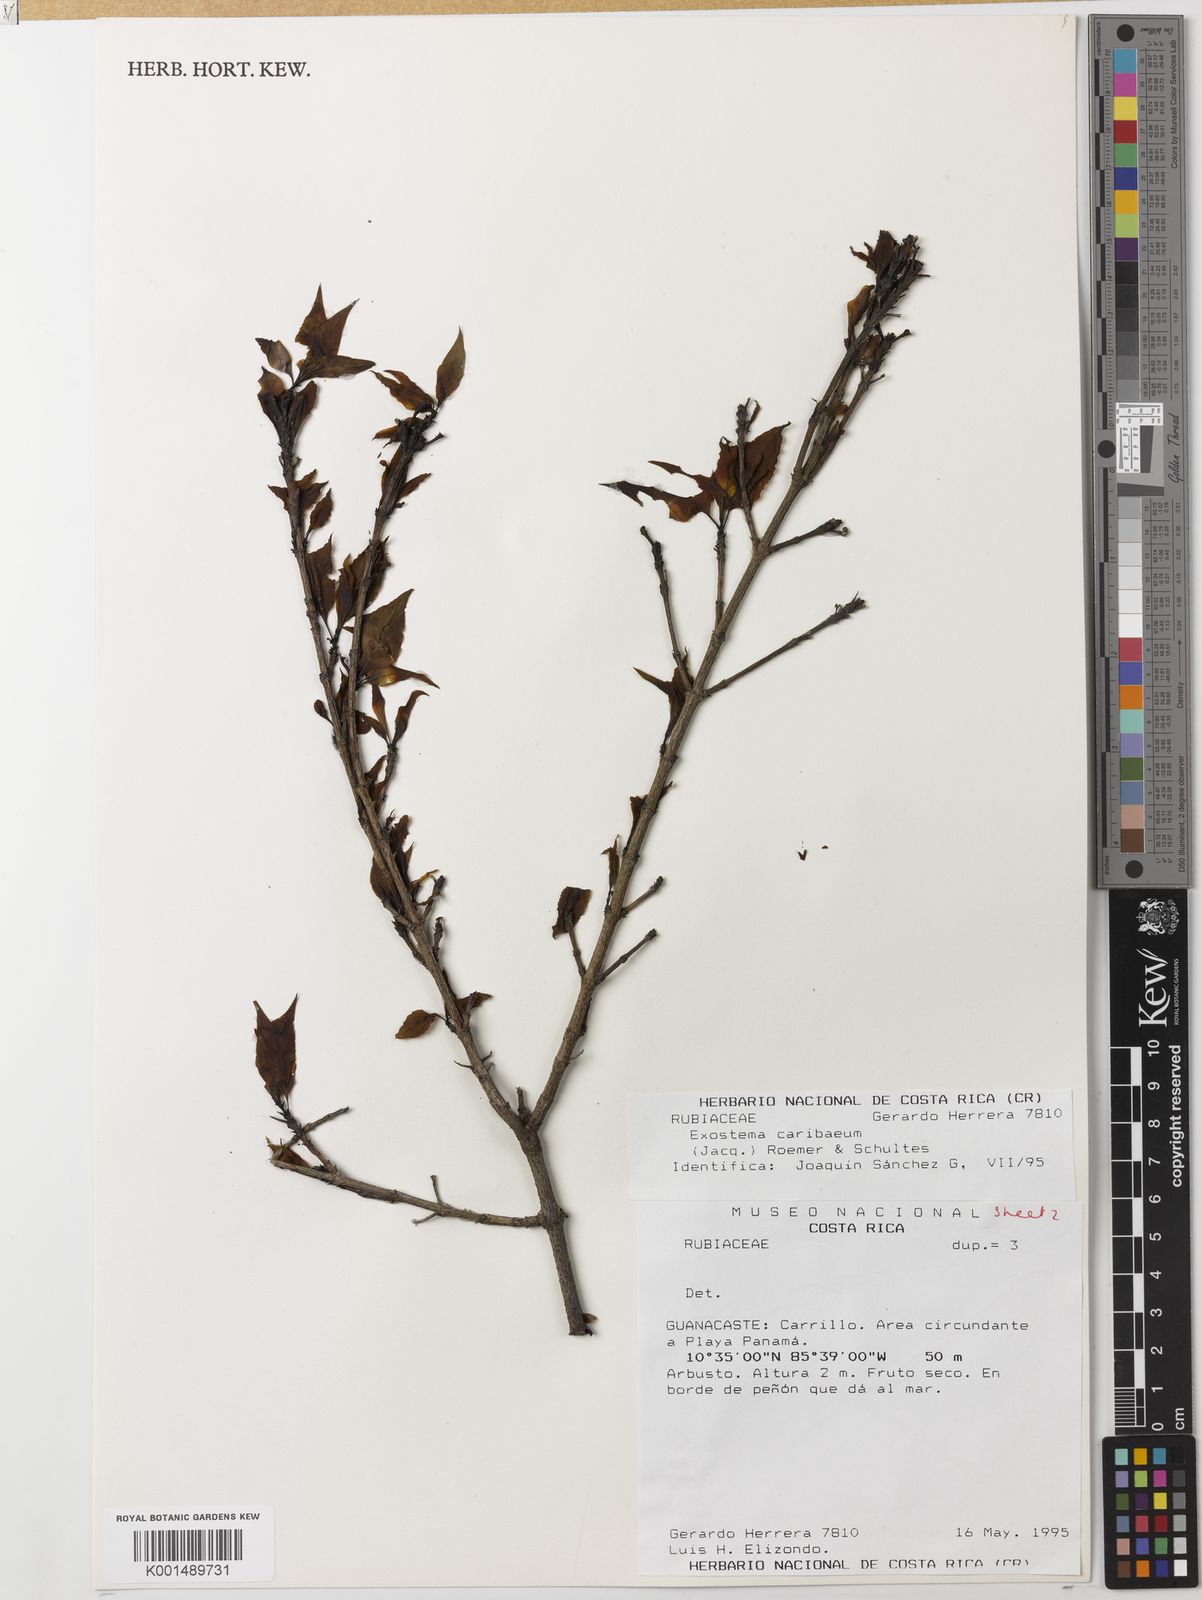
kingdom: Plantae
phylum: Tracheophyta
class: Magnoliopsida
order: Gentianales
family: Rubiaceae
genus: Exostema
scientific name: Exostema caribaeum
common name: Princewood
